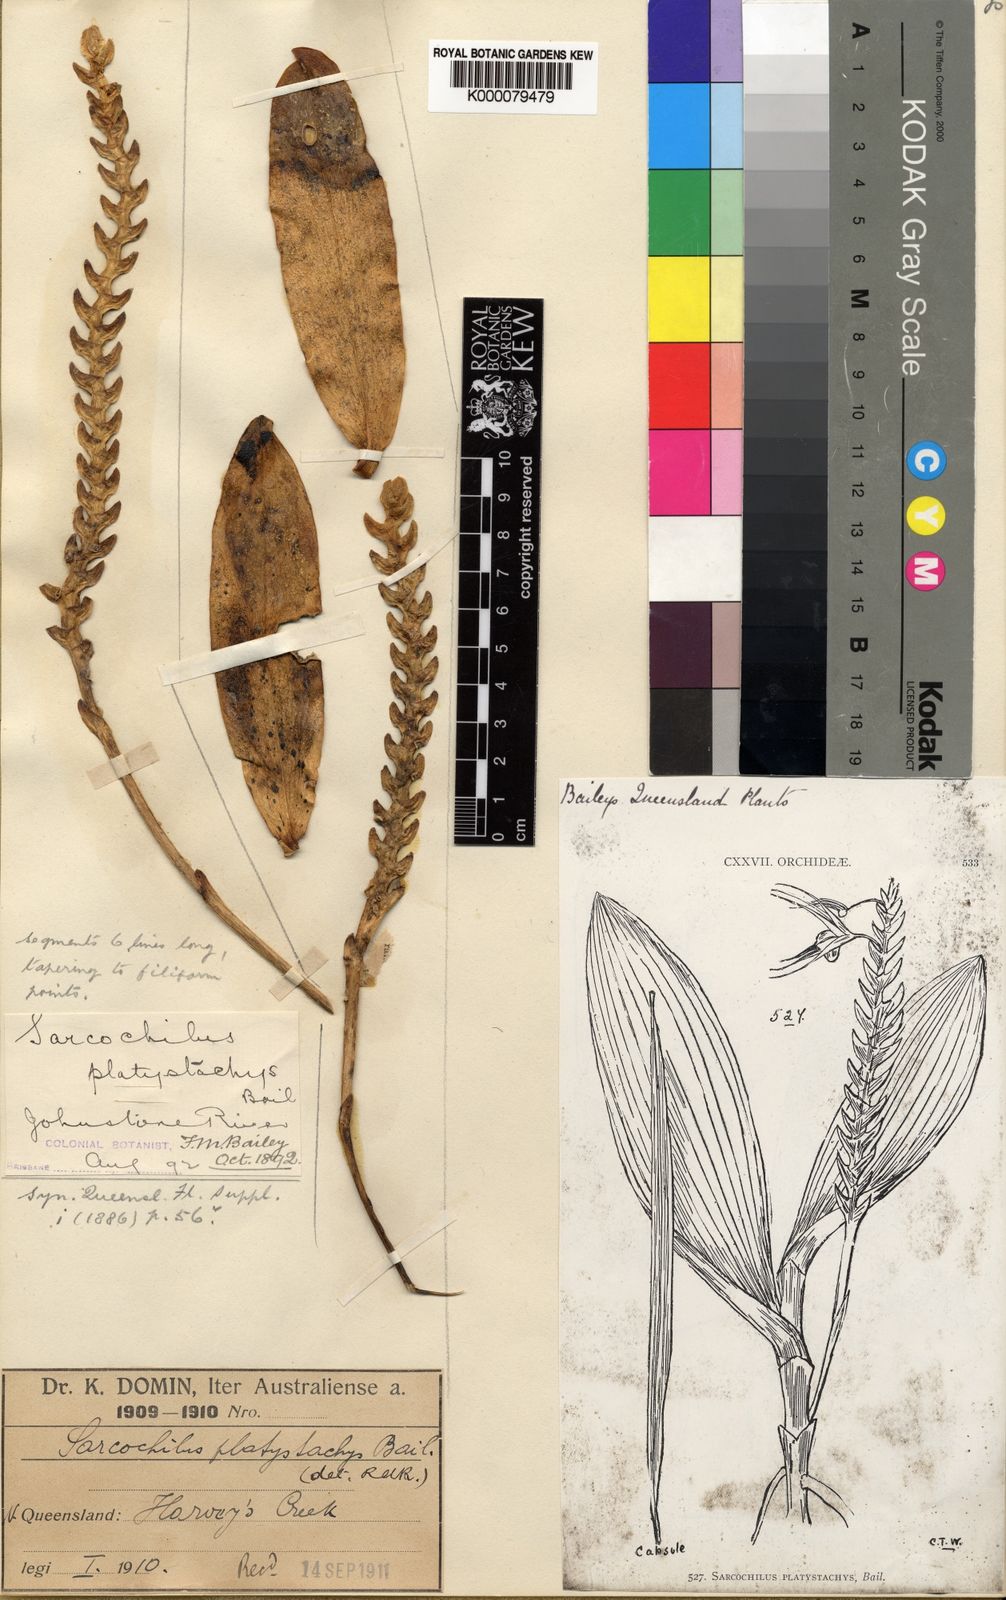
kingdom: Plantae
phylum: Tracheophyta
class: Liliopsida
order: Asparagales
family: Orchidaceae
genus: Thrixspermum
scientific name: Thrixspermum platystachys
